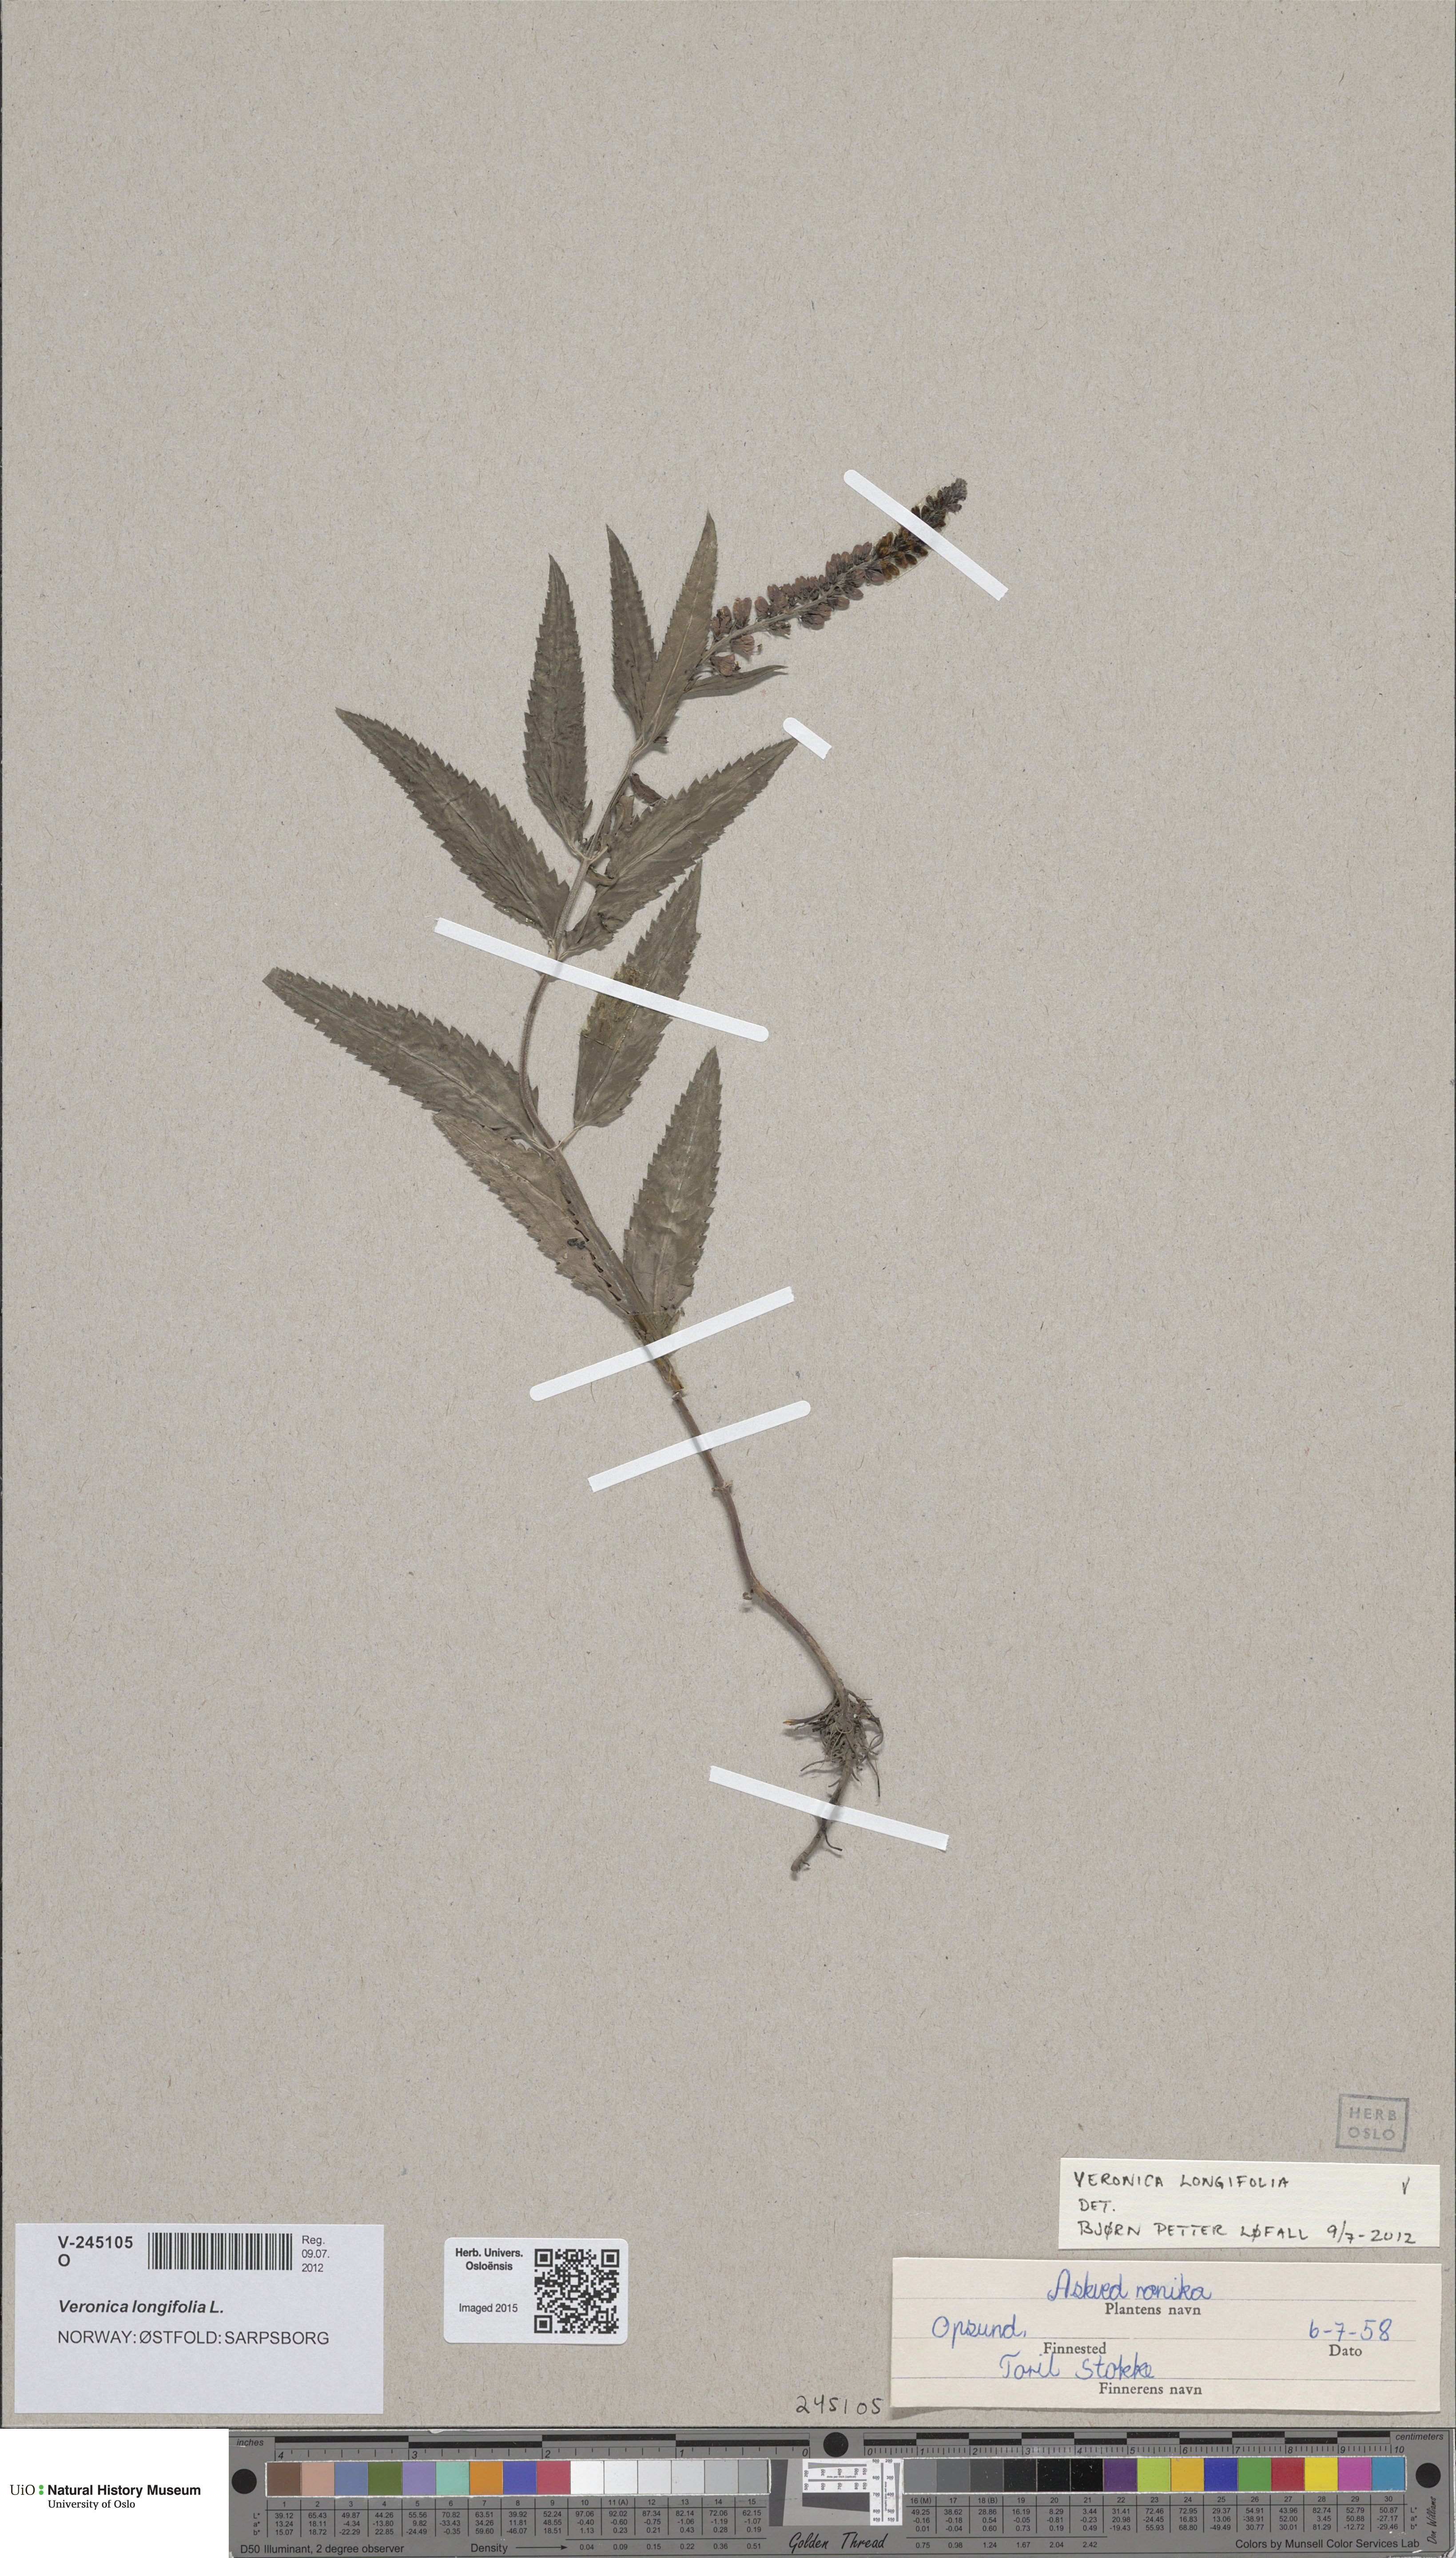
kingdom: Plantae
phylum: Tracheophyta
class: Magnoliopsida
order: Lamiales
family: Plantaginaceae
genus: Veronica
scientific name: Veronica longifolia
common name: Garden speedwell
